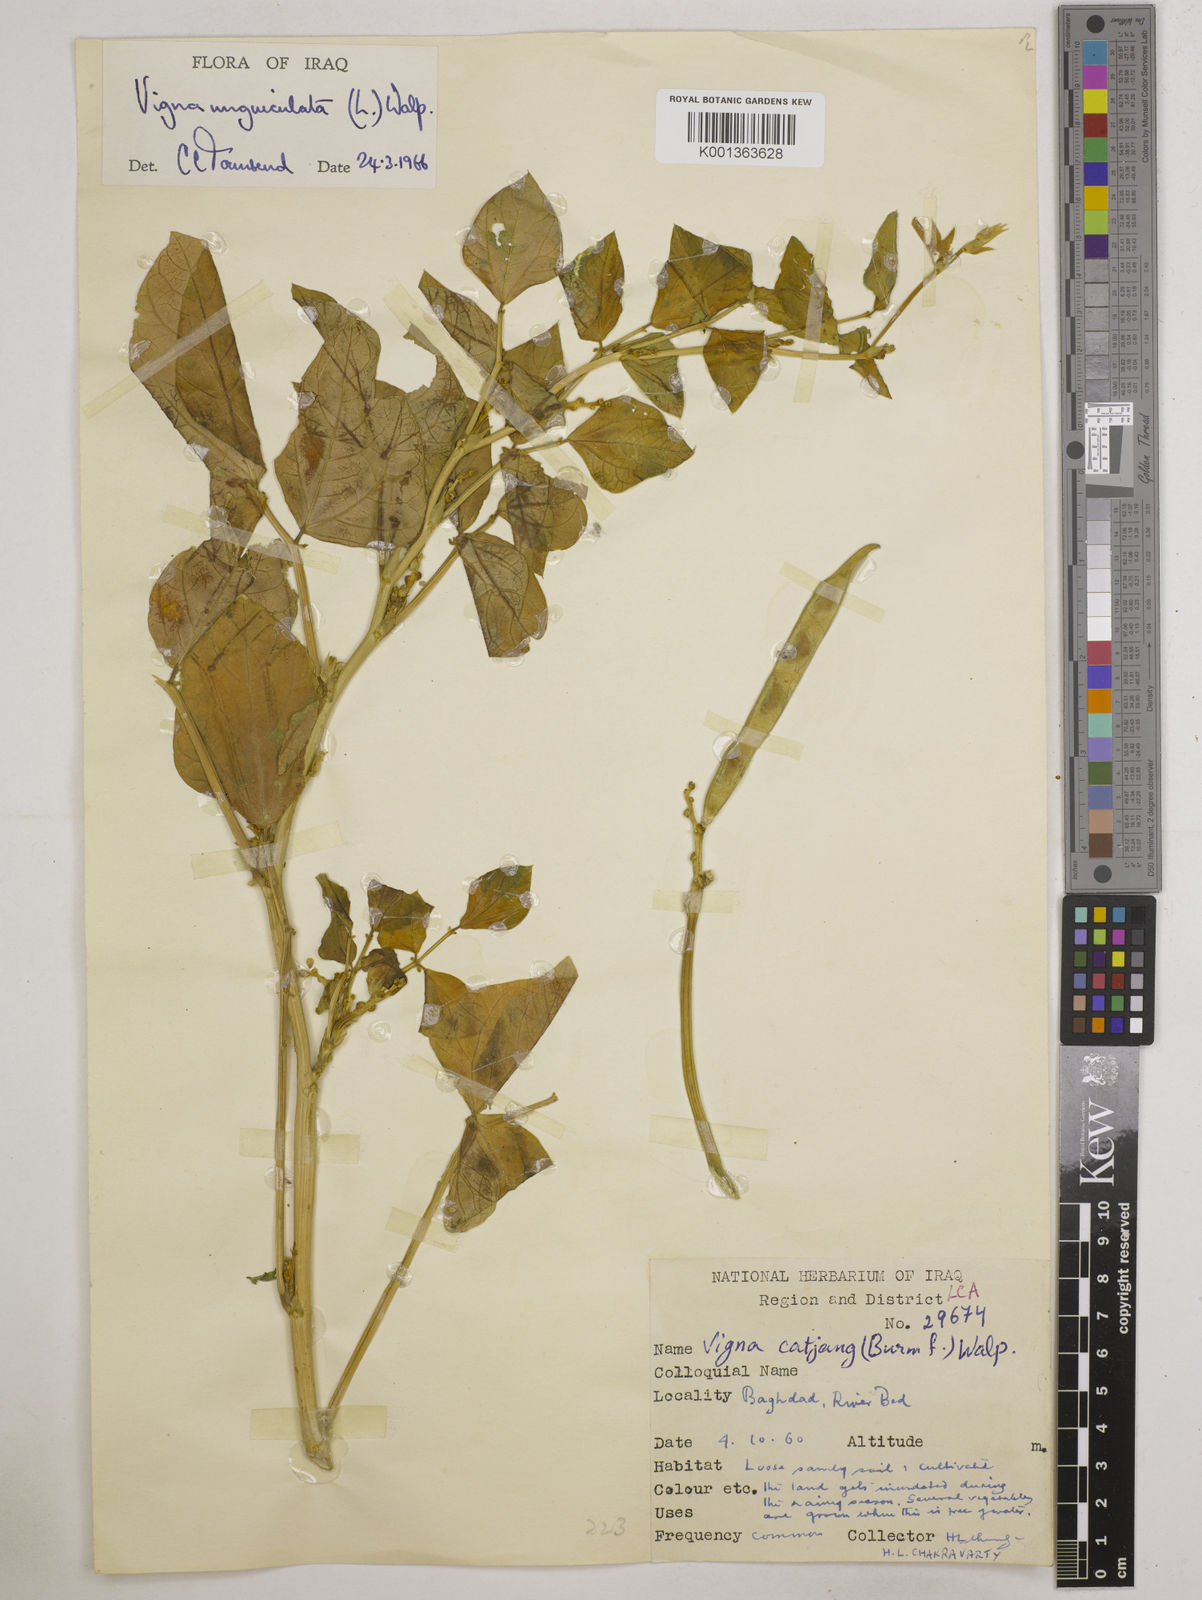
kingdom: Plantae
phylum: Tracheophyta
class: Magnoliopsida
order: Fabales
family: Fabaceae
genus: Vigna
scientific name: Vigna unguiculata
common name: Cowpea
